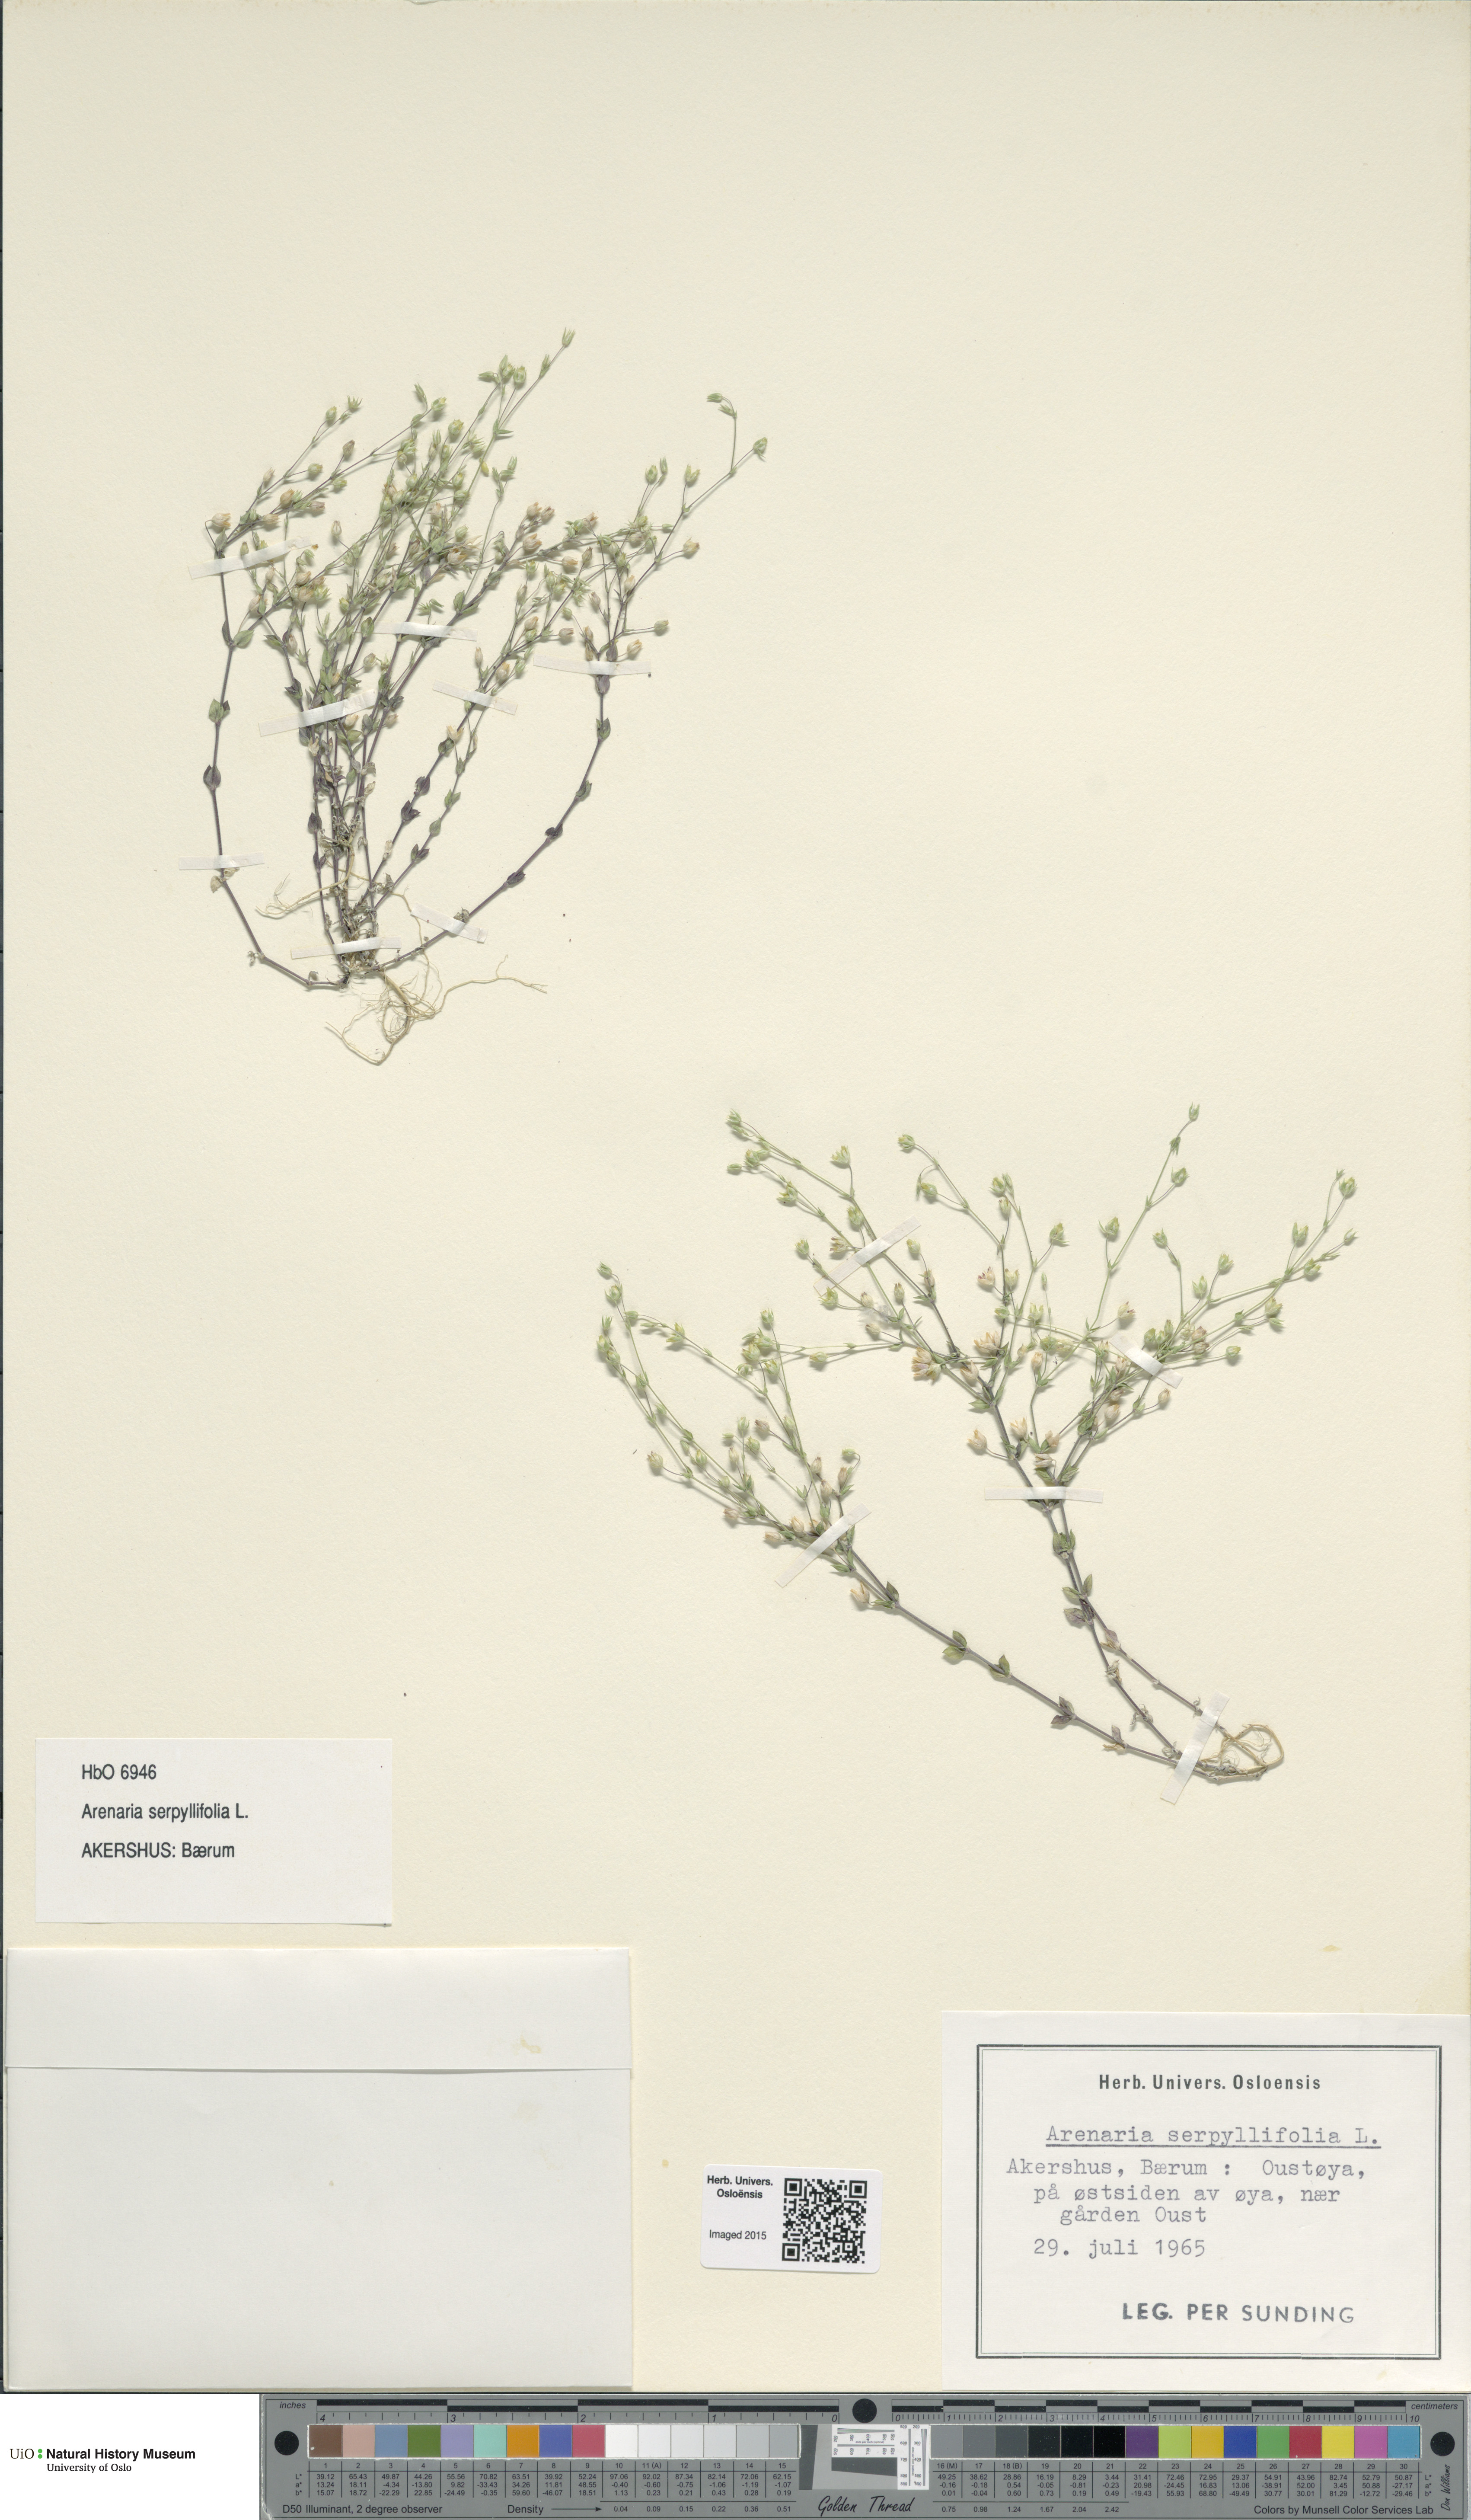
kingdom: Plantae
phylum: Tracheophyta
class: Magnoliopsida
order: Caryophyllales
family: Caryophyllaceae
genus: Arenaria
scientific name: Arenaria serpyllifolia
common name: Thyme-leaved sandwort
